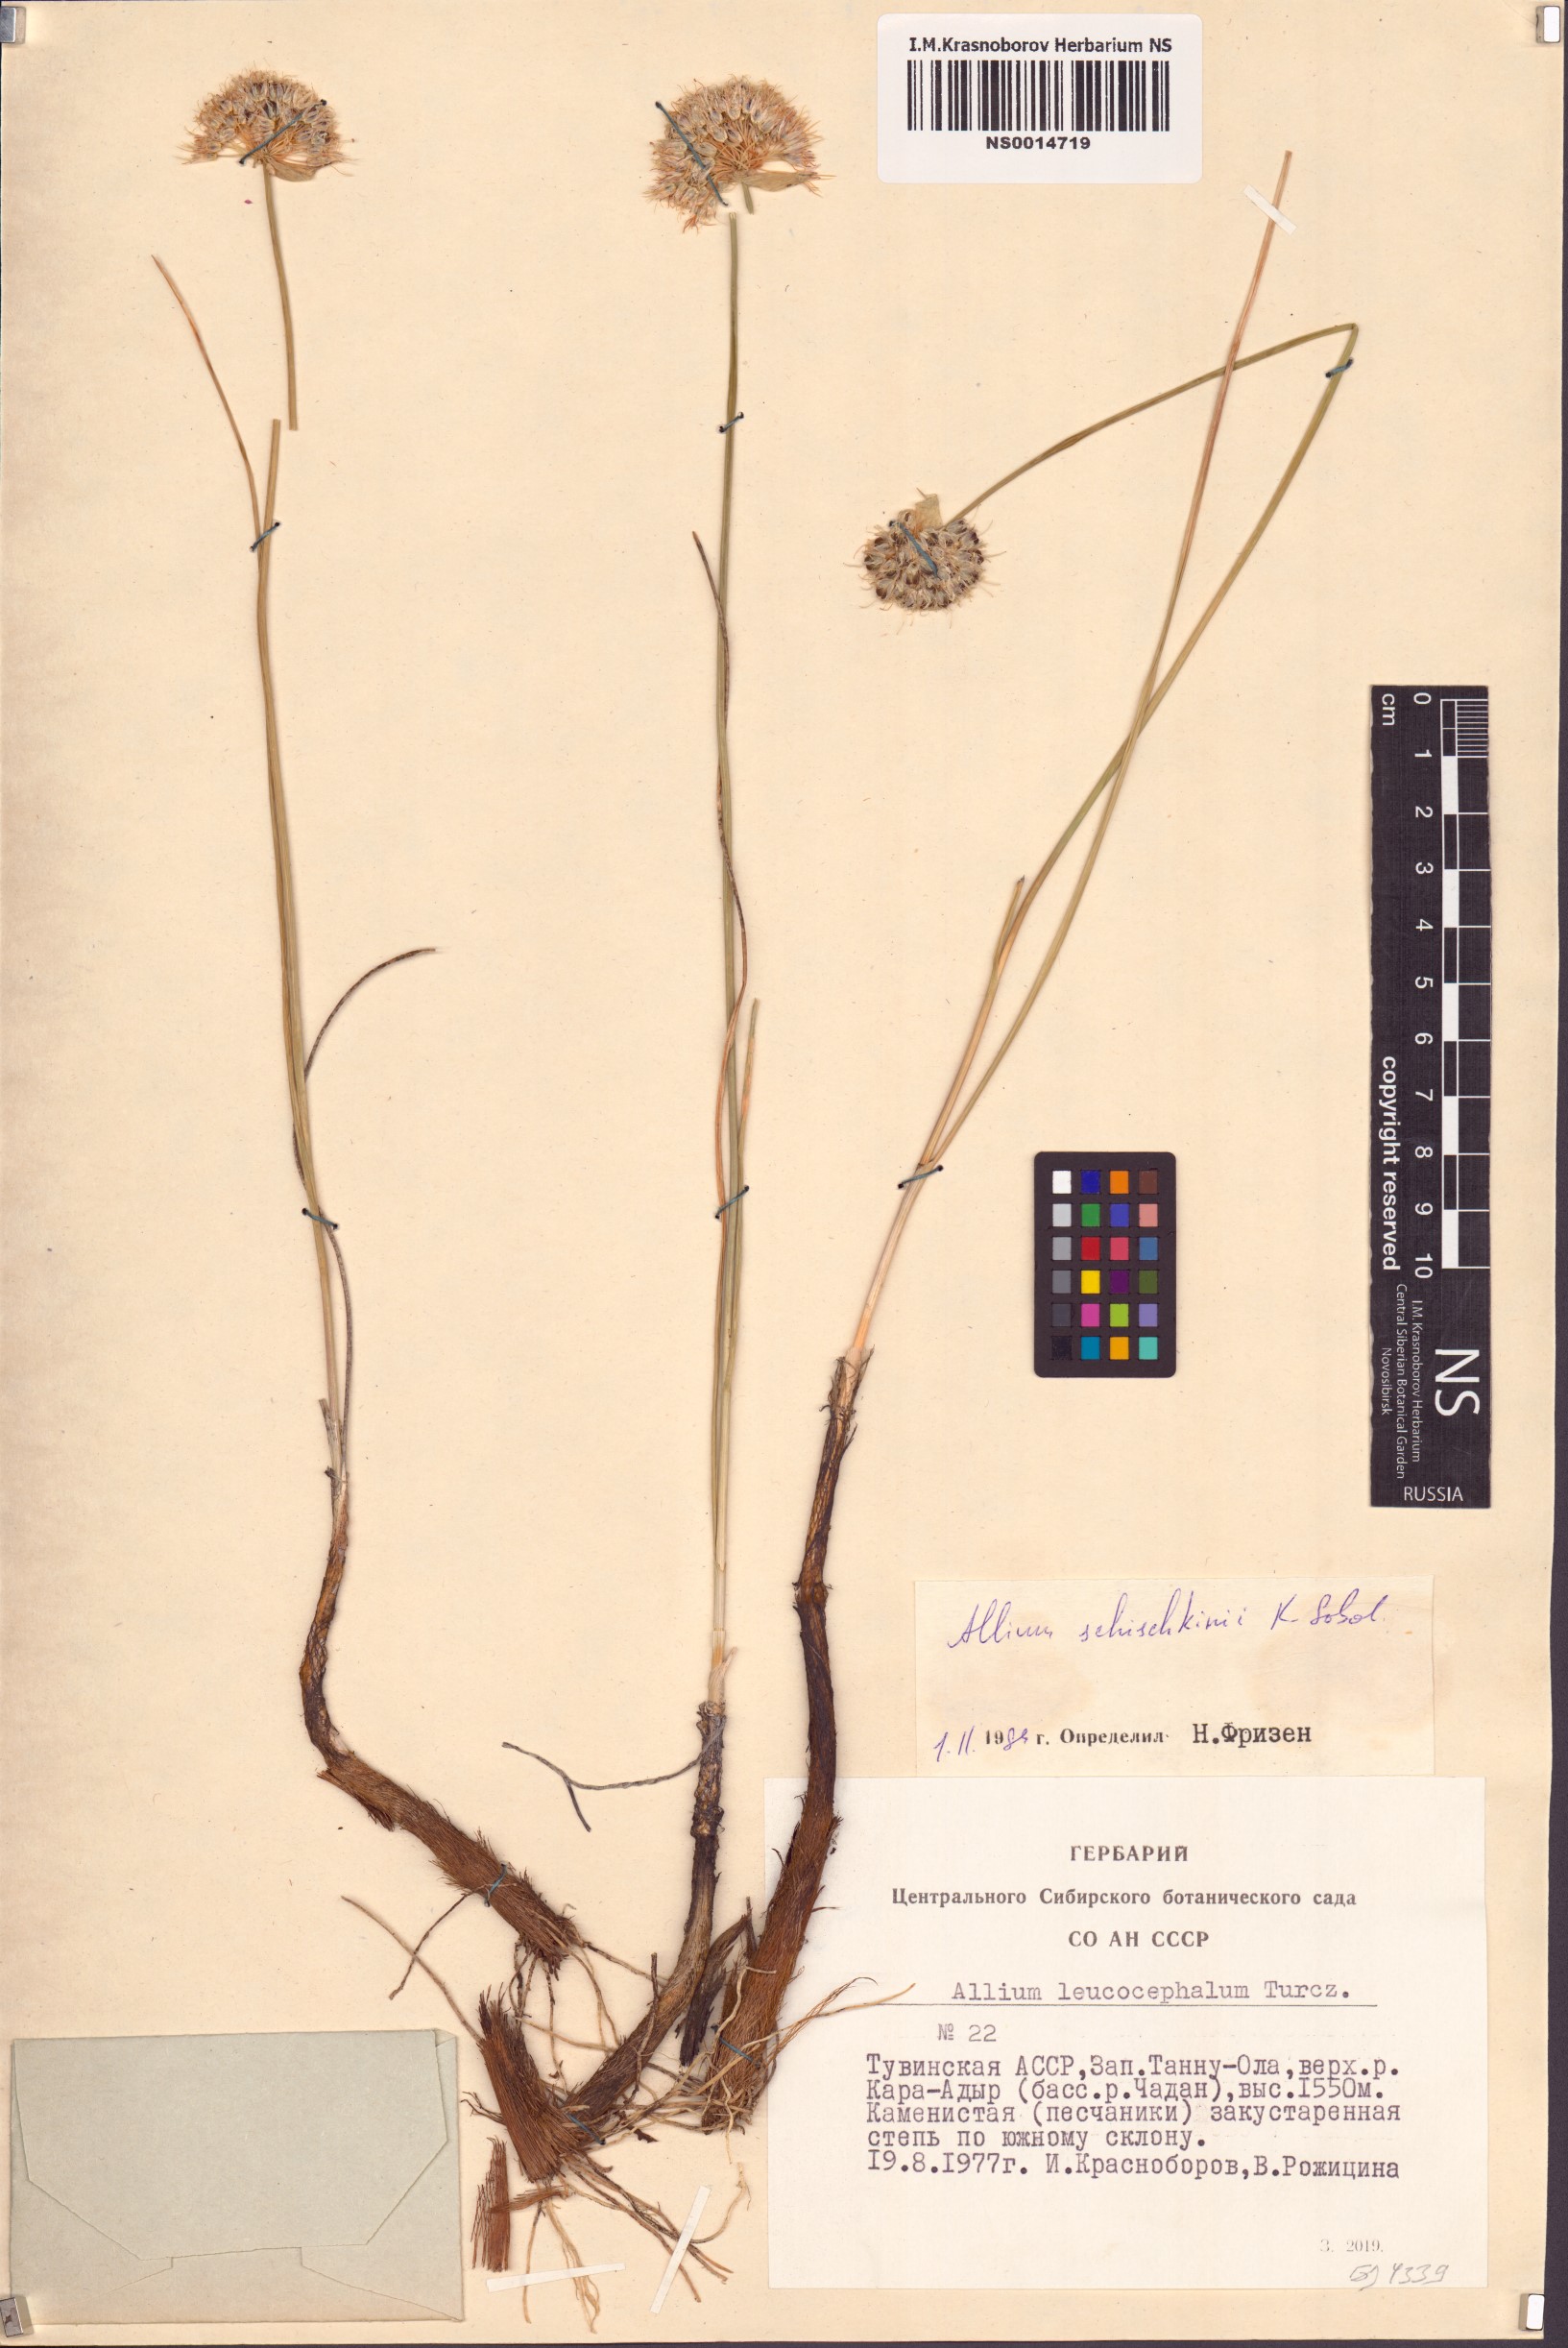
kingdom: Plantae
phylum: Tracheophyta
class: Liliopsida
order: Asparagales
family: Amaryllidaceae
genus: Allium
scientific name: Allium schischkinii
